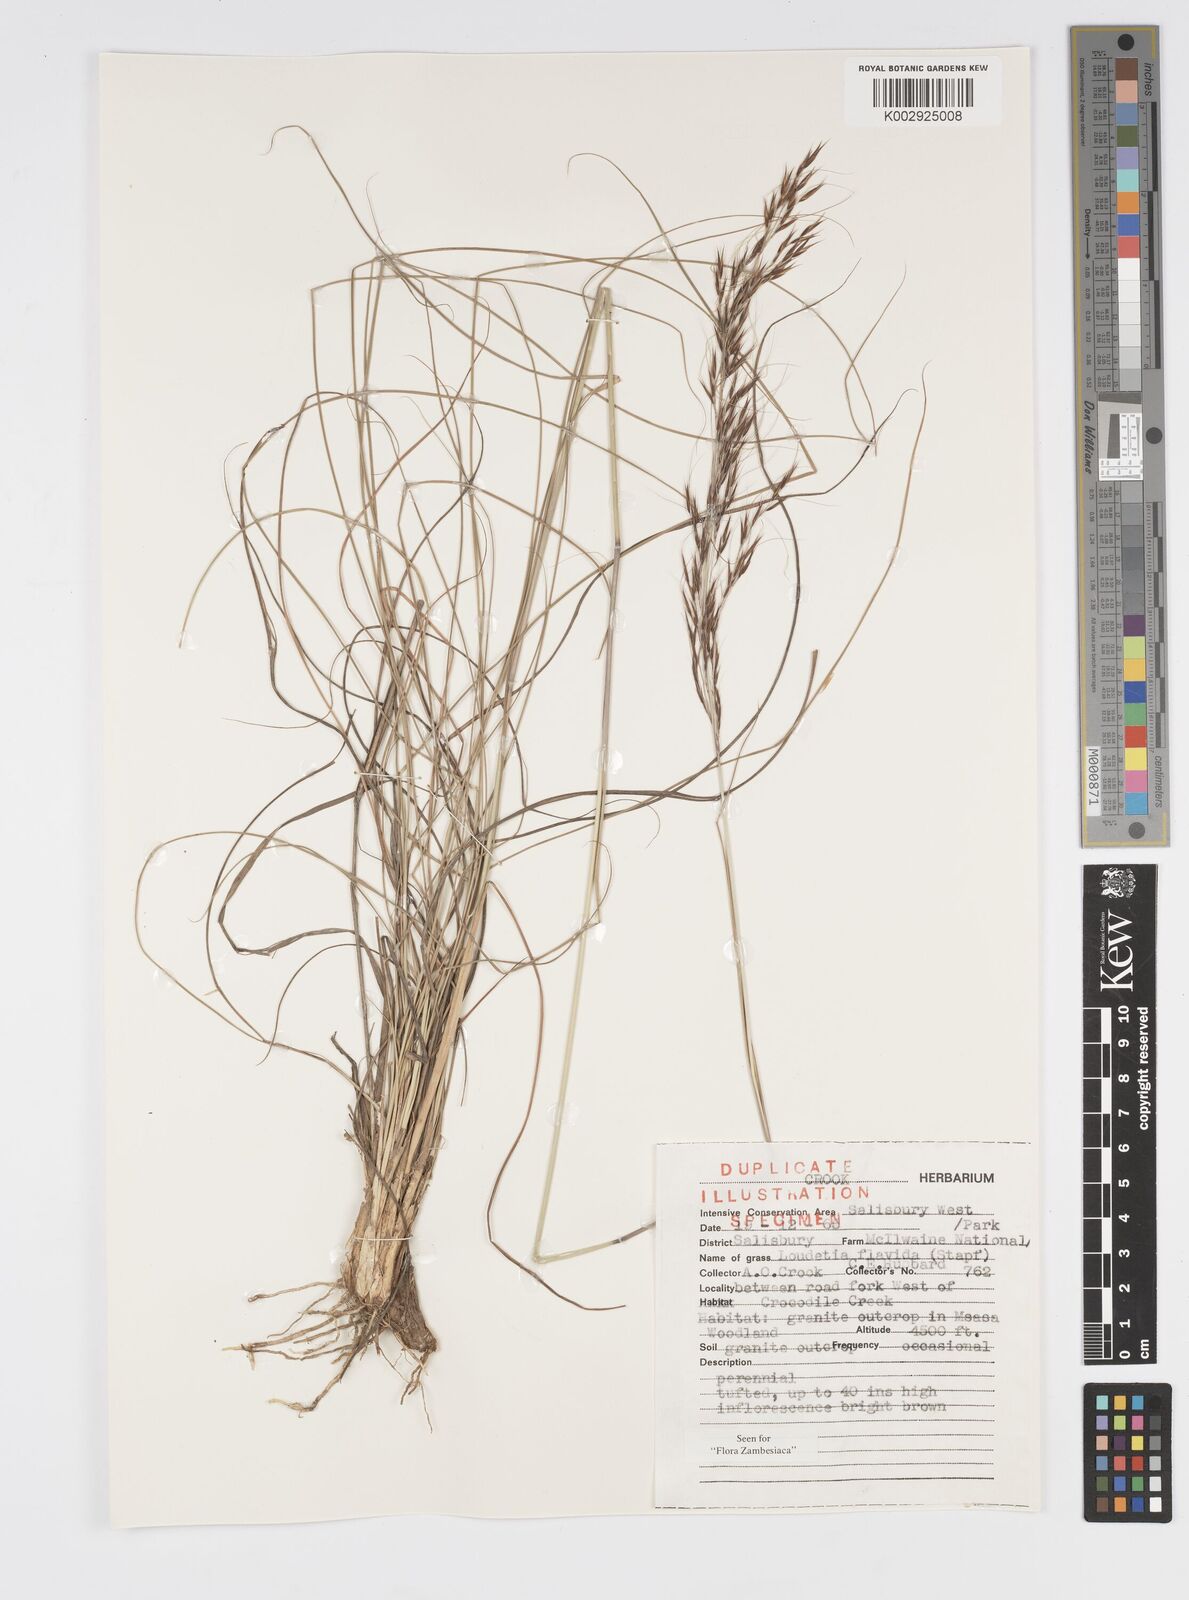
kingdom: Plantae
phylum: Tracheophyta
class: Liliopsida
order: Poales
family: Poaceae
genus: Loudetia
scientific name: Loudetia flavida
